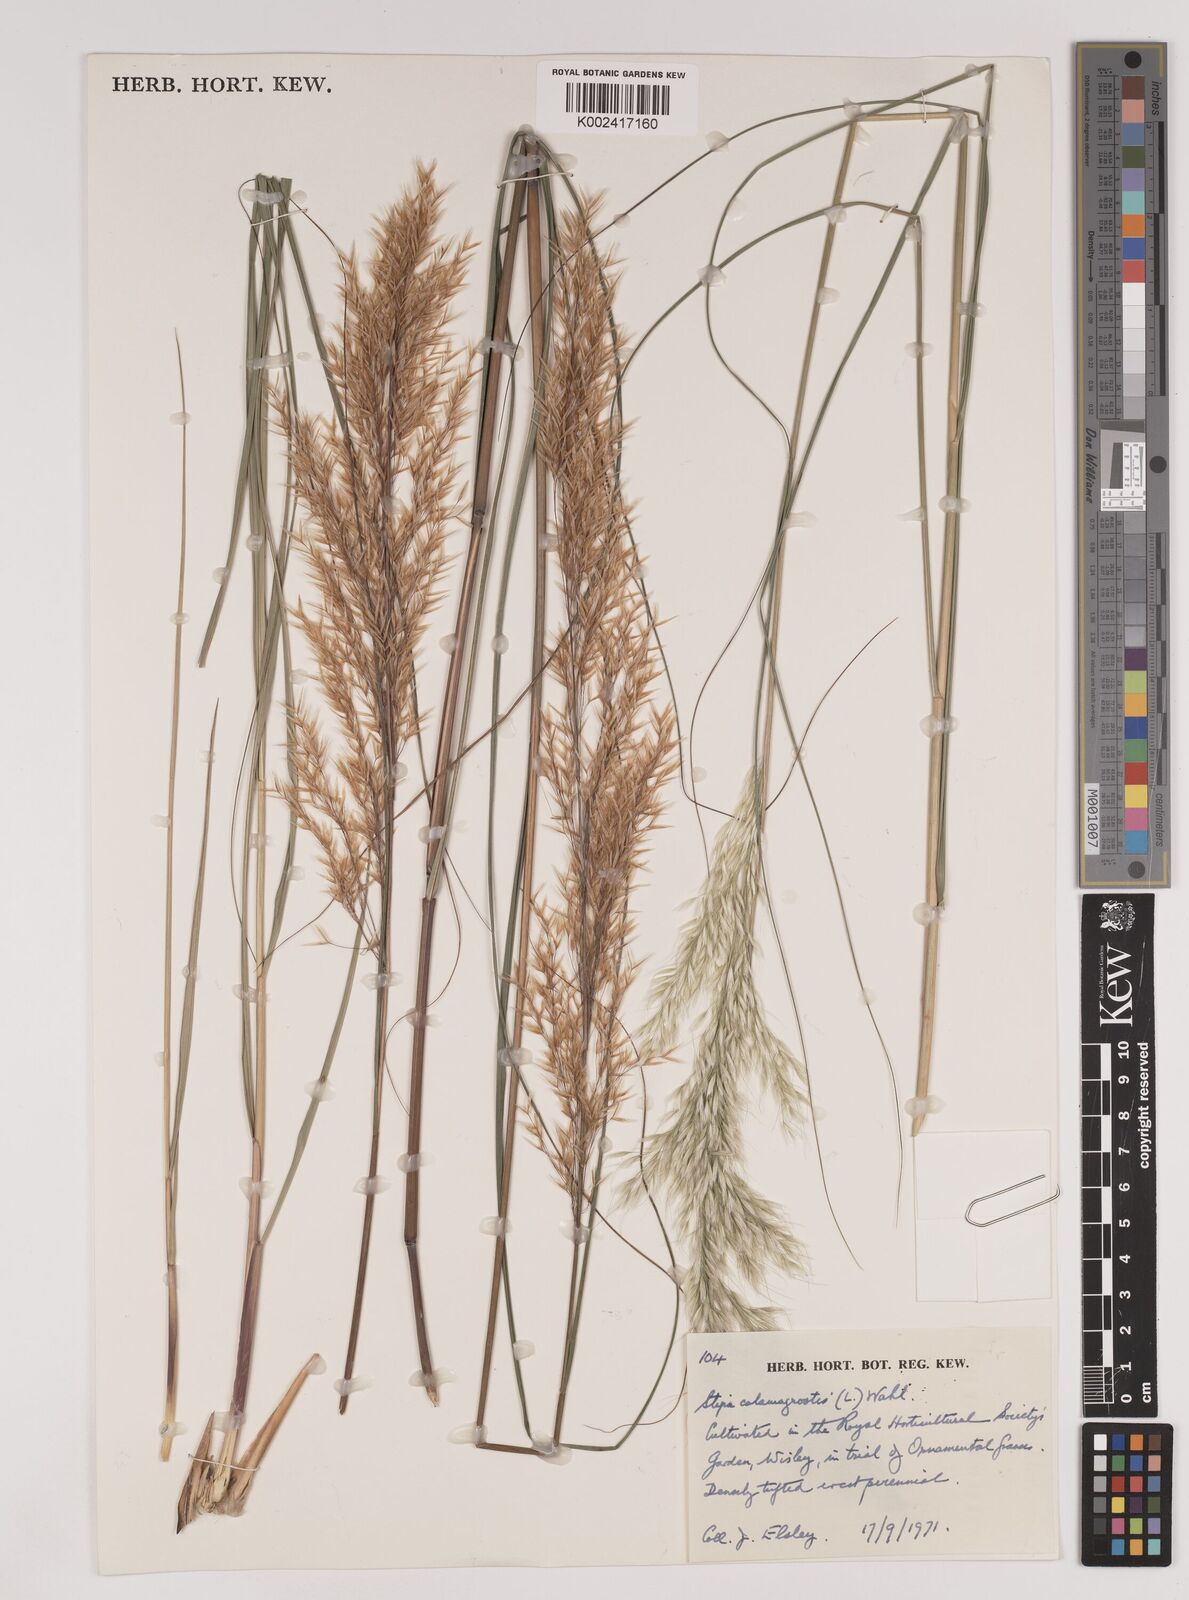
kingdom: Plantae
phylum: Tracheophyta
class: Liliopsida
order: Poales
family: Poaceae
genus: Achnatherum
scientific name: Achnatherum calamagrostis
